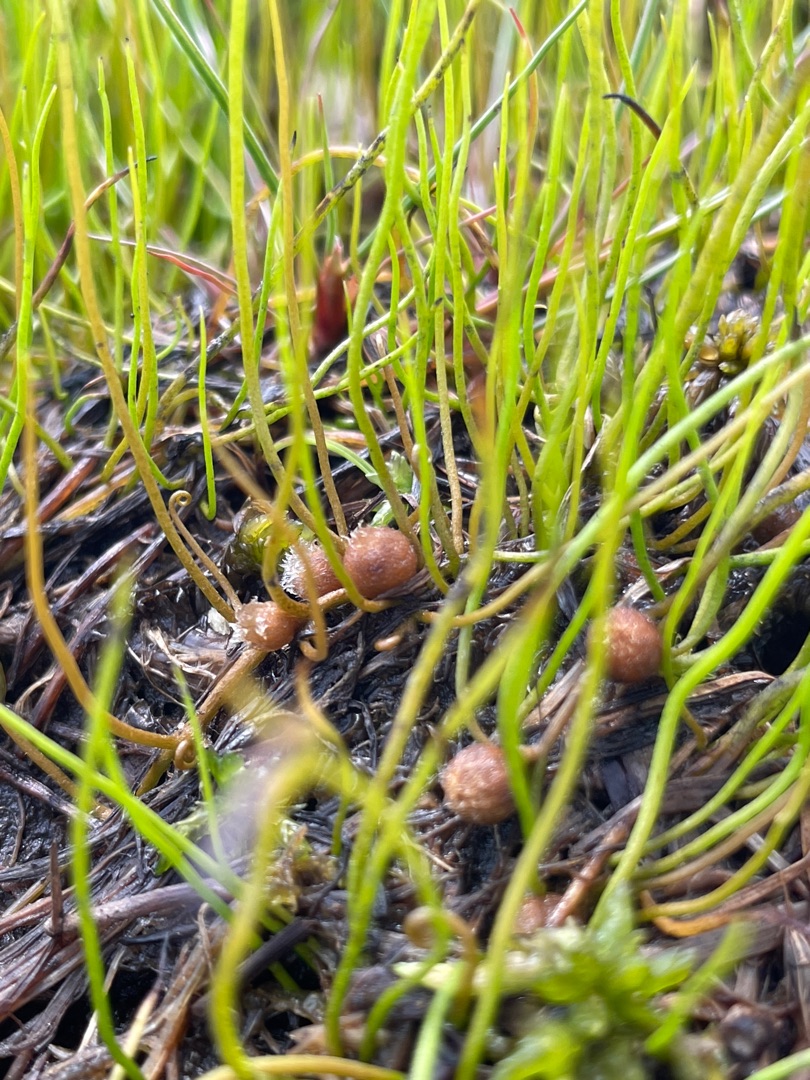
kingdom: Plantae
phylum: Tracheophyta
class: Polypodiopsida
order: Salviniales
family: Marsileaceae
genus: Pilularia
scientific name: Pilularia globulifera
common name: Pilledrager
